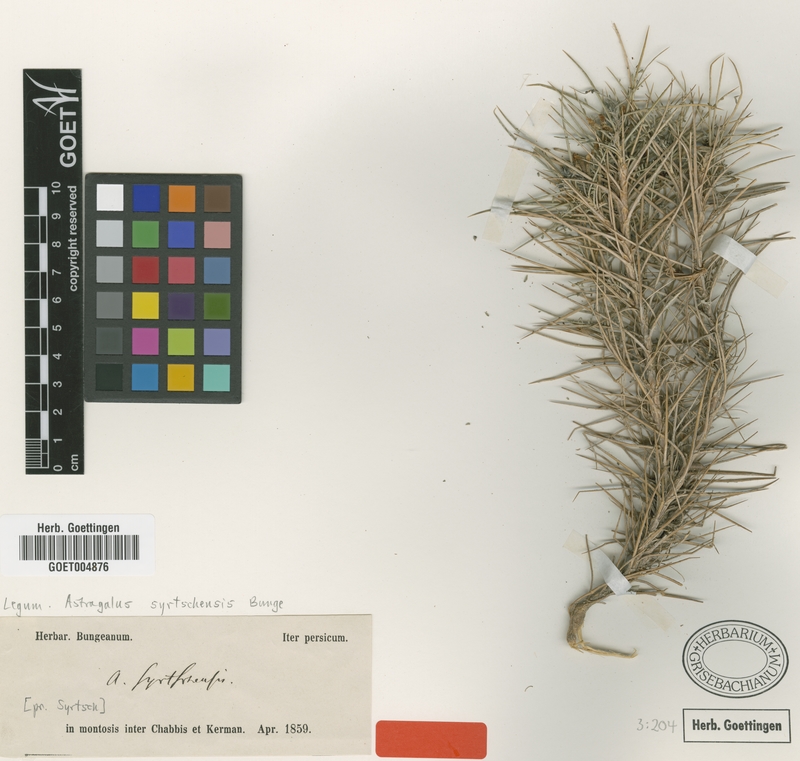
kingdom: Plantae
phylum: Tracheophyta
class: Magnoliopsida
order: Fabales
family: Fabaceae
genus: Astragalus
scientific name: Astragalus lycioides
